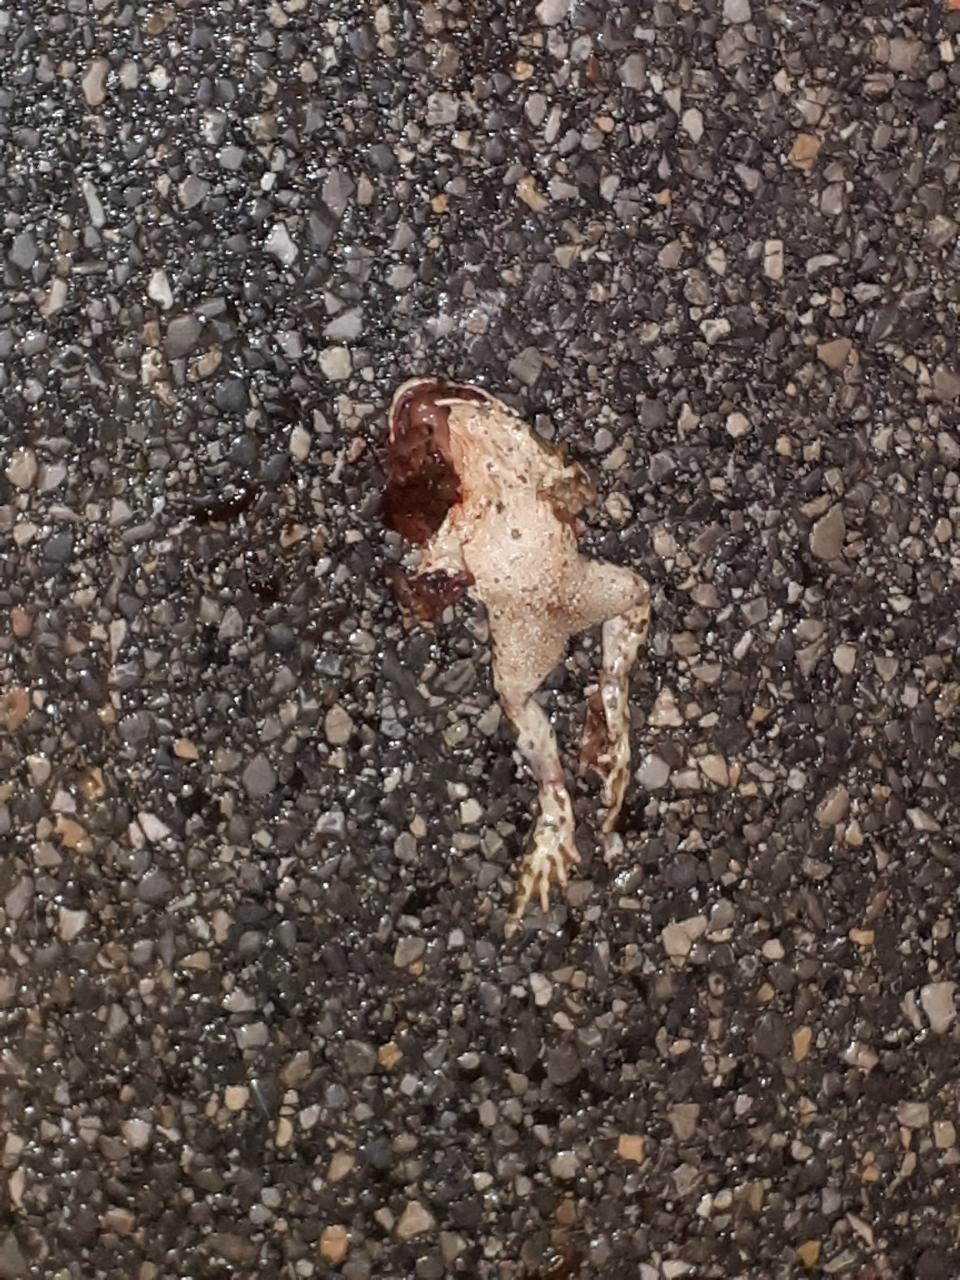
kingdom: Animalia
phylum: Chordata
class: Amphibia
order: Anura
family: Bufonidae
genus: Bufotes
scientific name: Bufotes viridis
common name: European green toad
